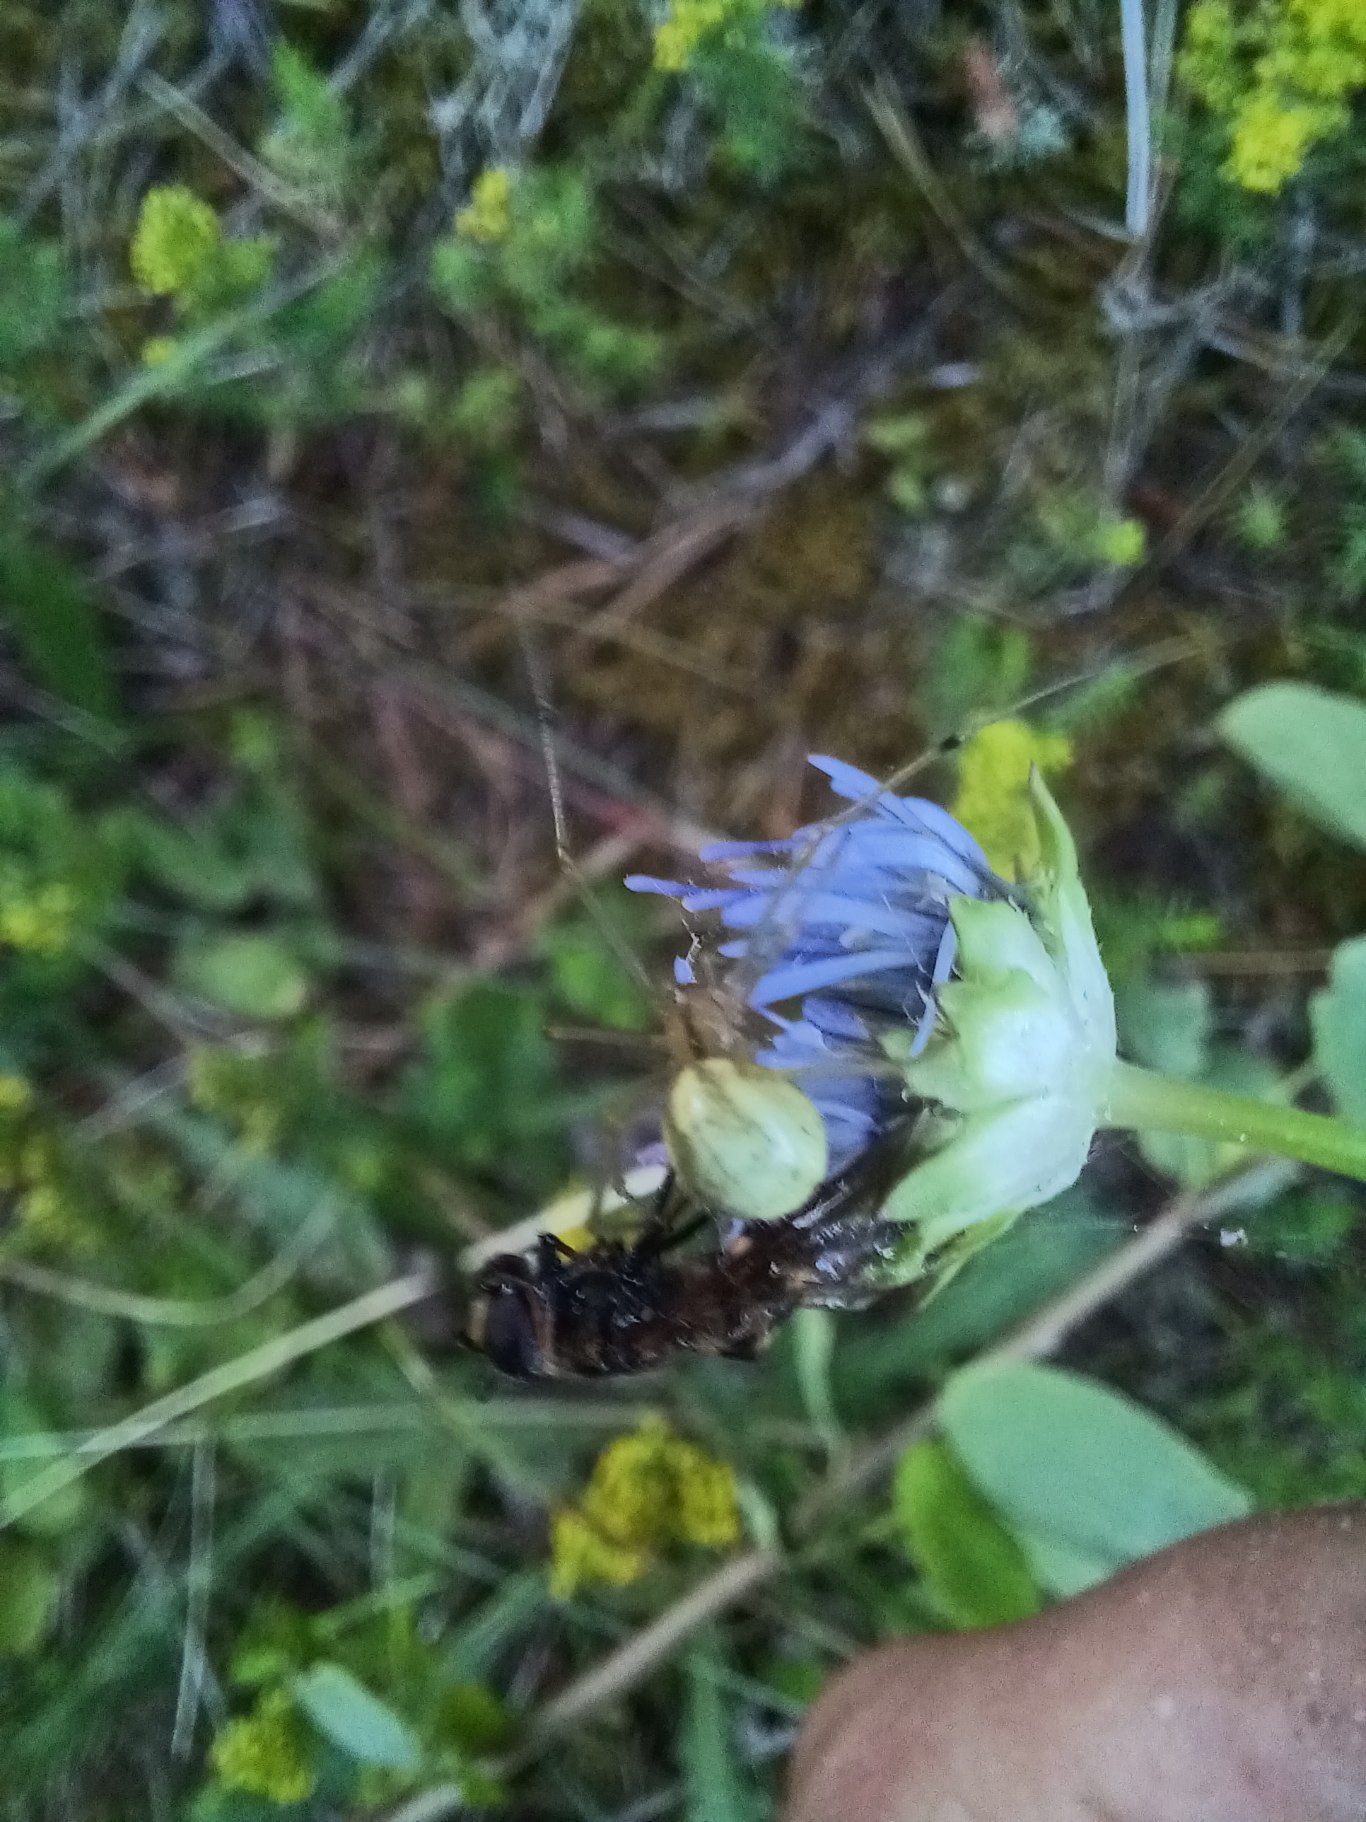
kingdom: Animalia
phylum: Arthropoda
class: Arachnida
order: Araneae
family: Theridiidae
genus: Enoplognatha
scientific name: Enoplognatha
